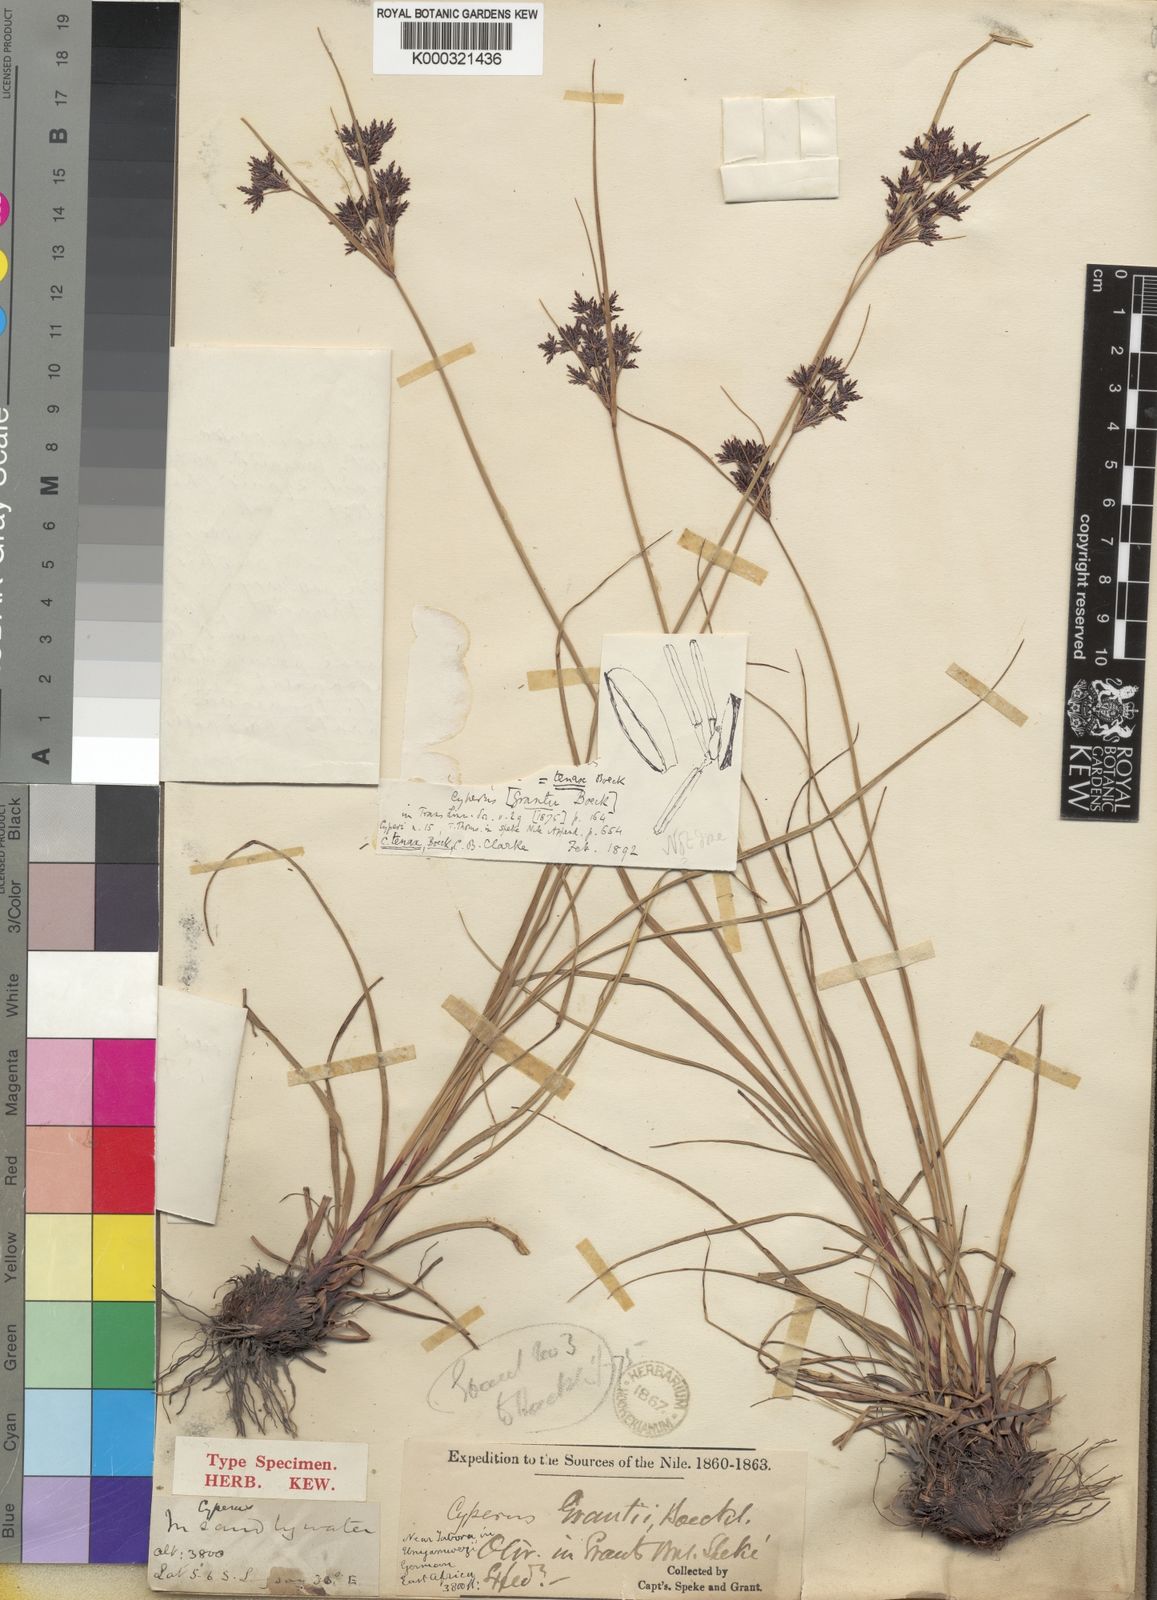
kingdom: Plantae
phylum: Tracheophyta
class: Liliopsida
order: Poales
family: Cyperaceae
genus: Cyperus
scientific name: Cyperus tenax
